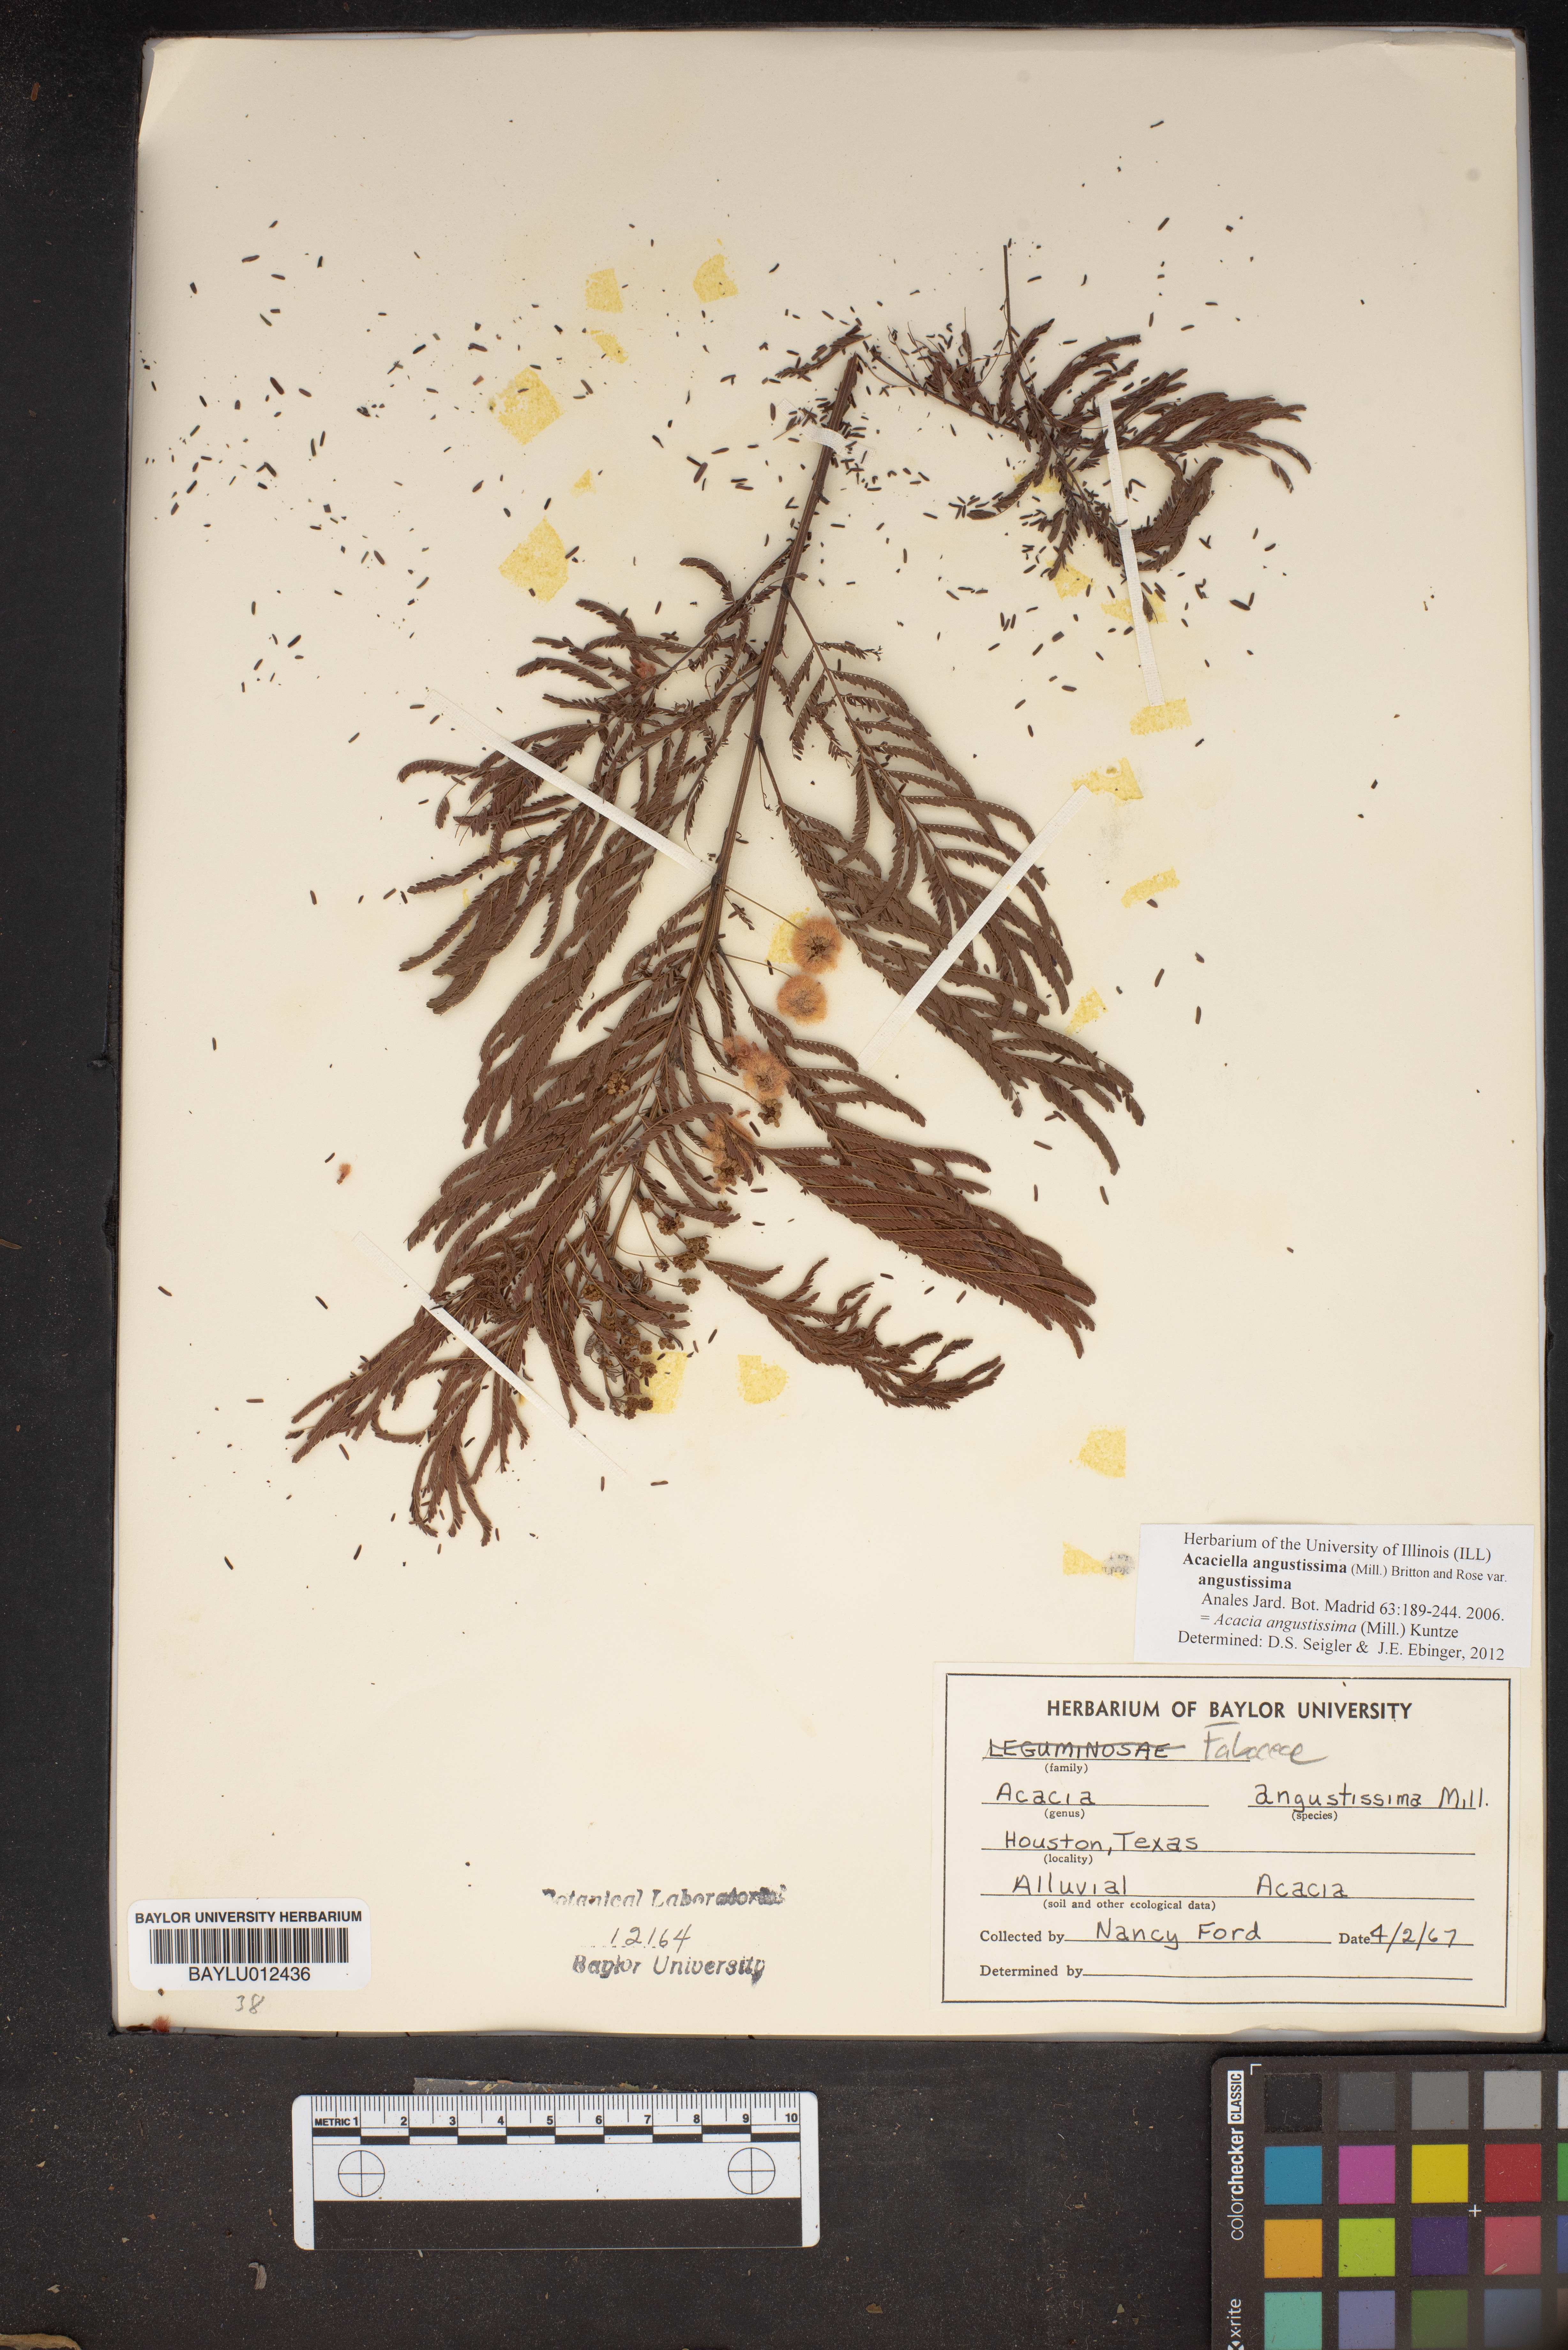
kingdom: Plantae
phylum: Tracheophyta
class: Magnoliopsida
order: Fabales
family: Fabaceae
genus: Acaciella
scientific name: Acaciella angustissima
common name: Prairie acacia
